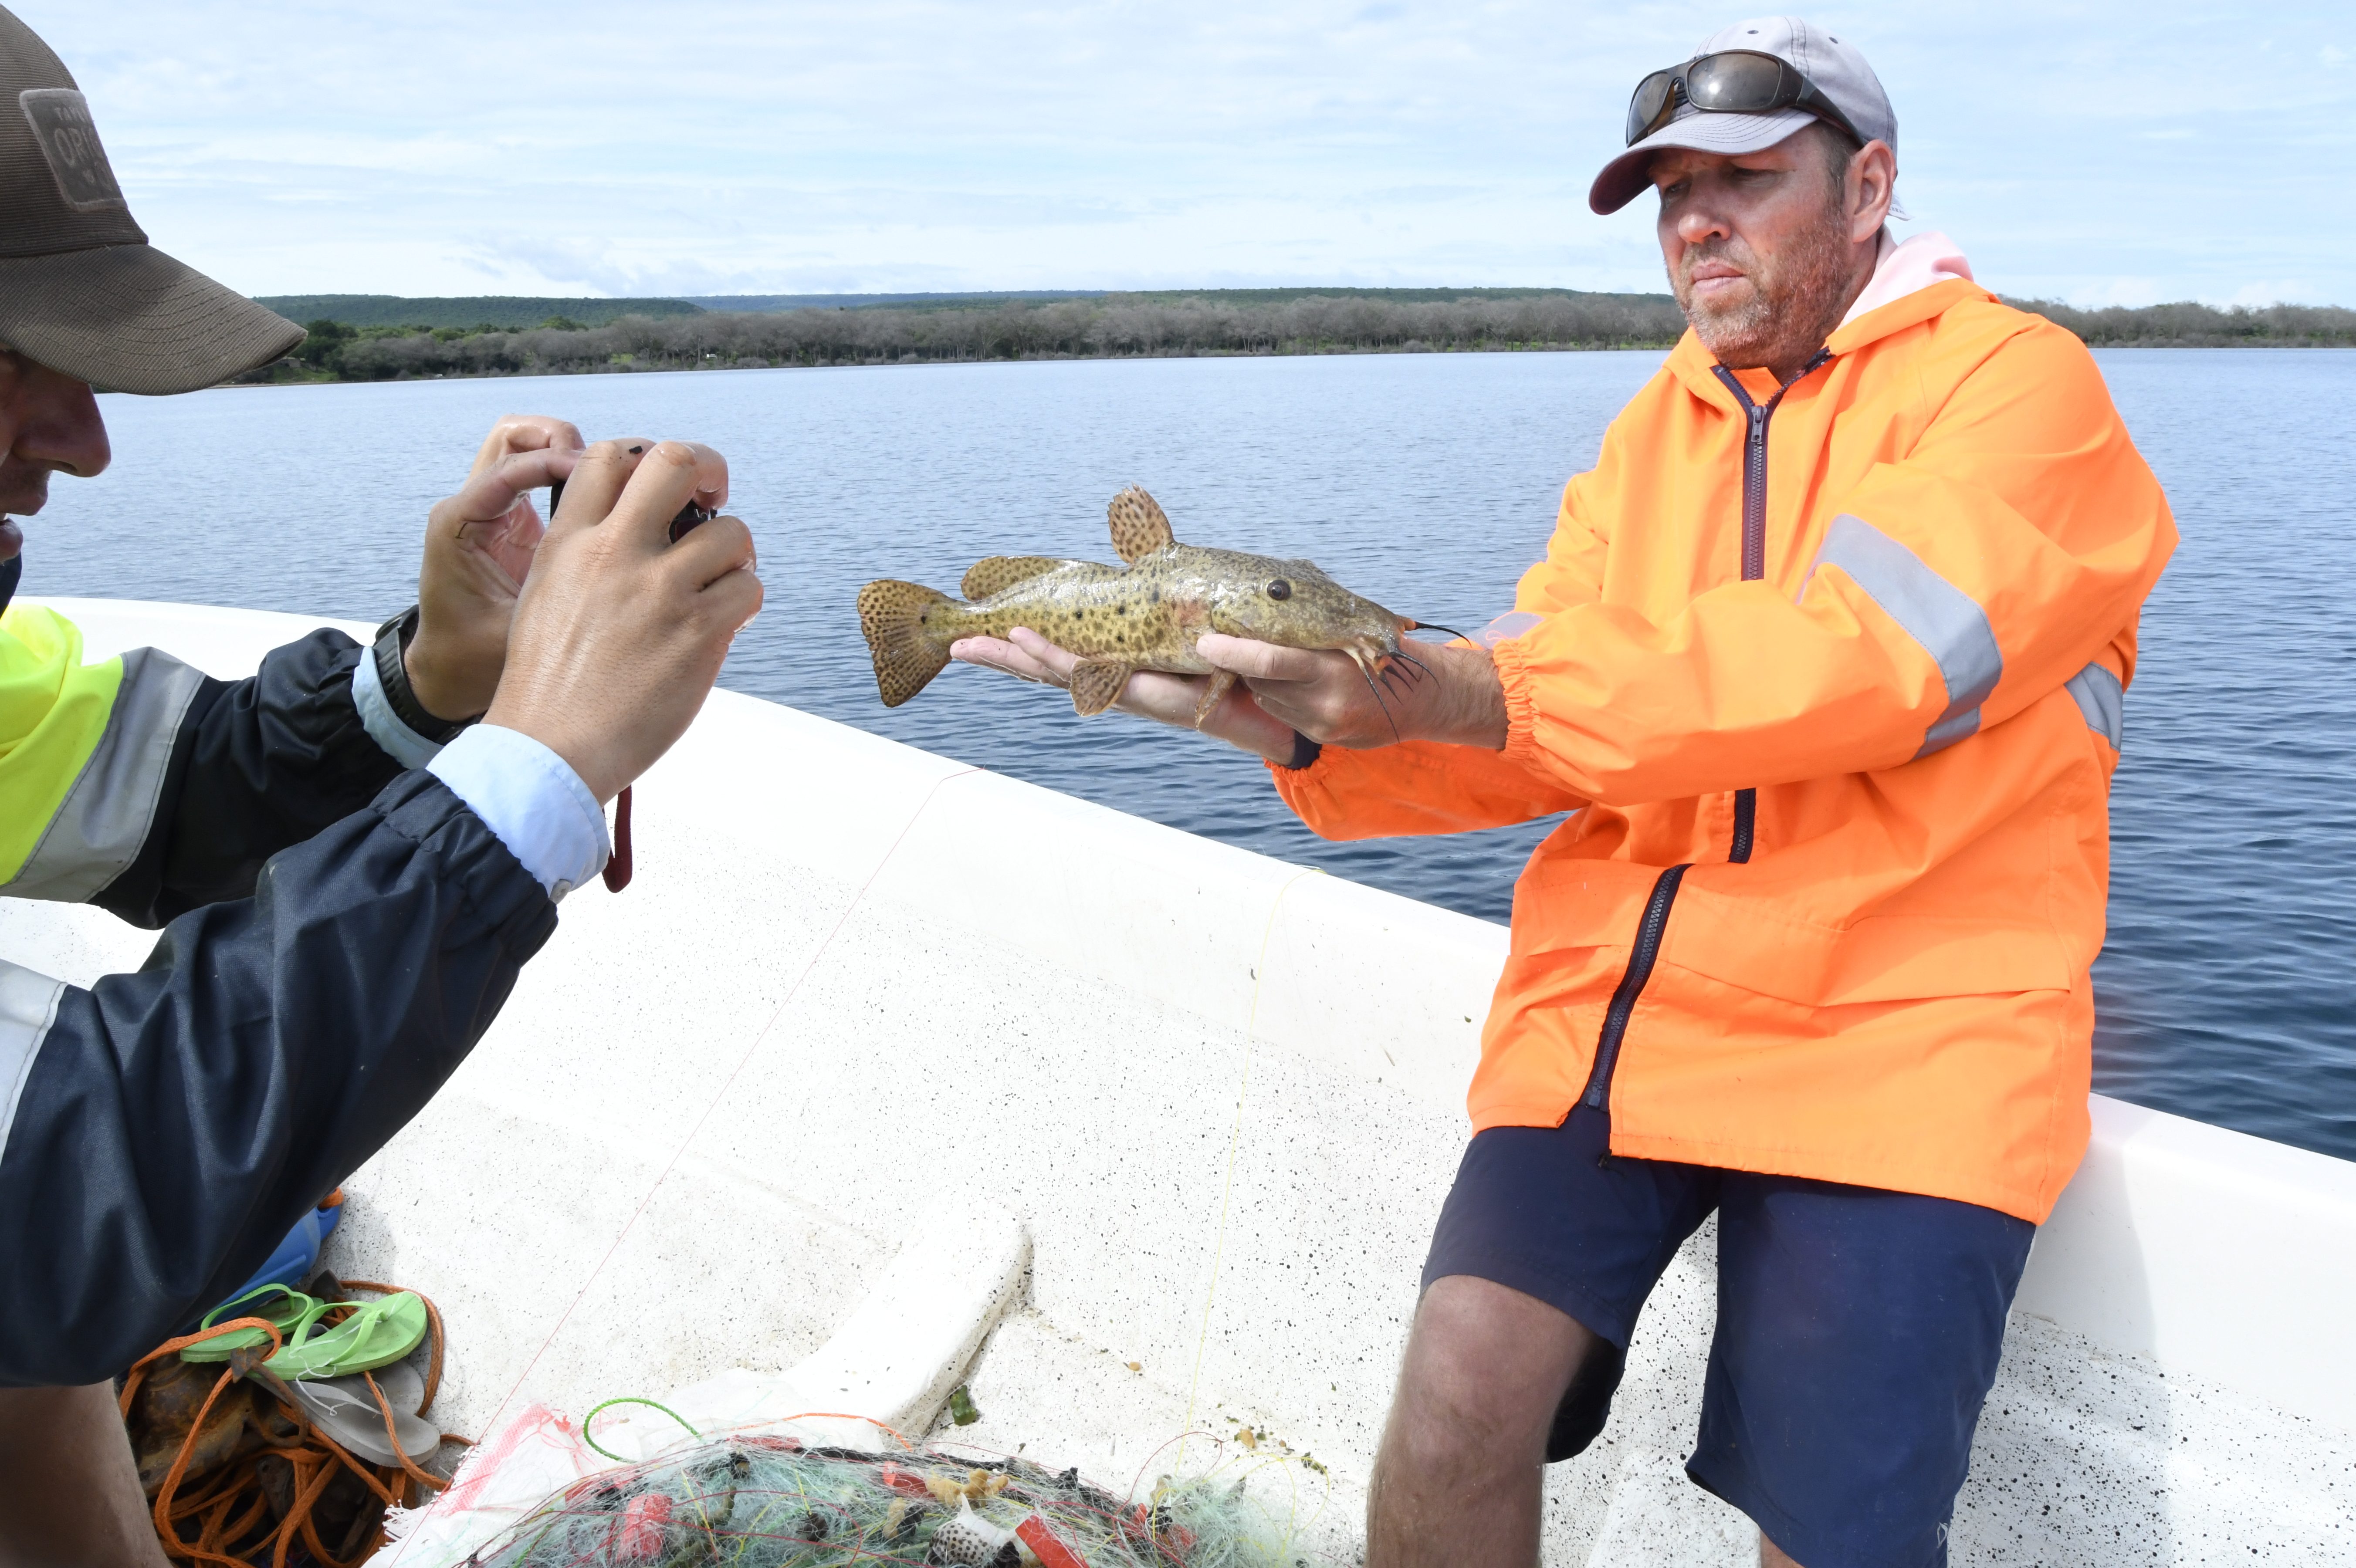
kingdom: Animalia
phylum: Chordata
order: Siluriformes
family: Claroteidae
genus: Auchenoglanis
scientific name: Auchenoglanis occidentalis
